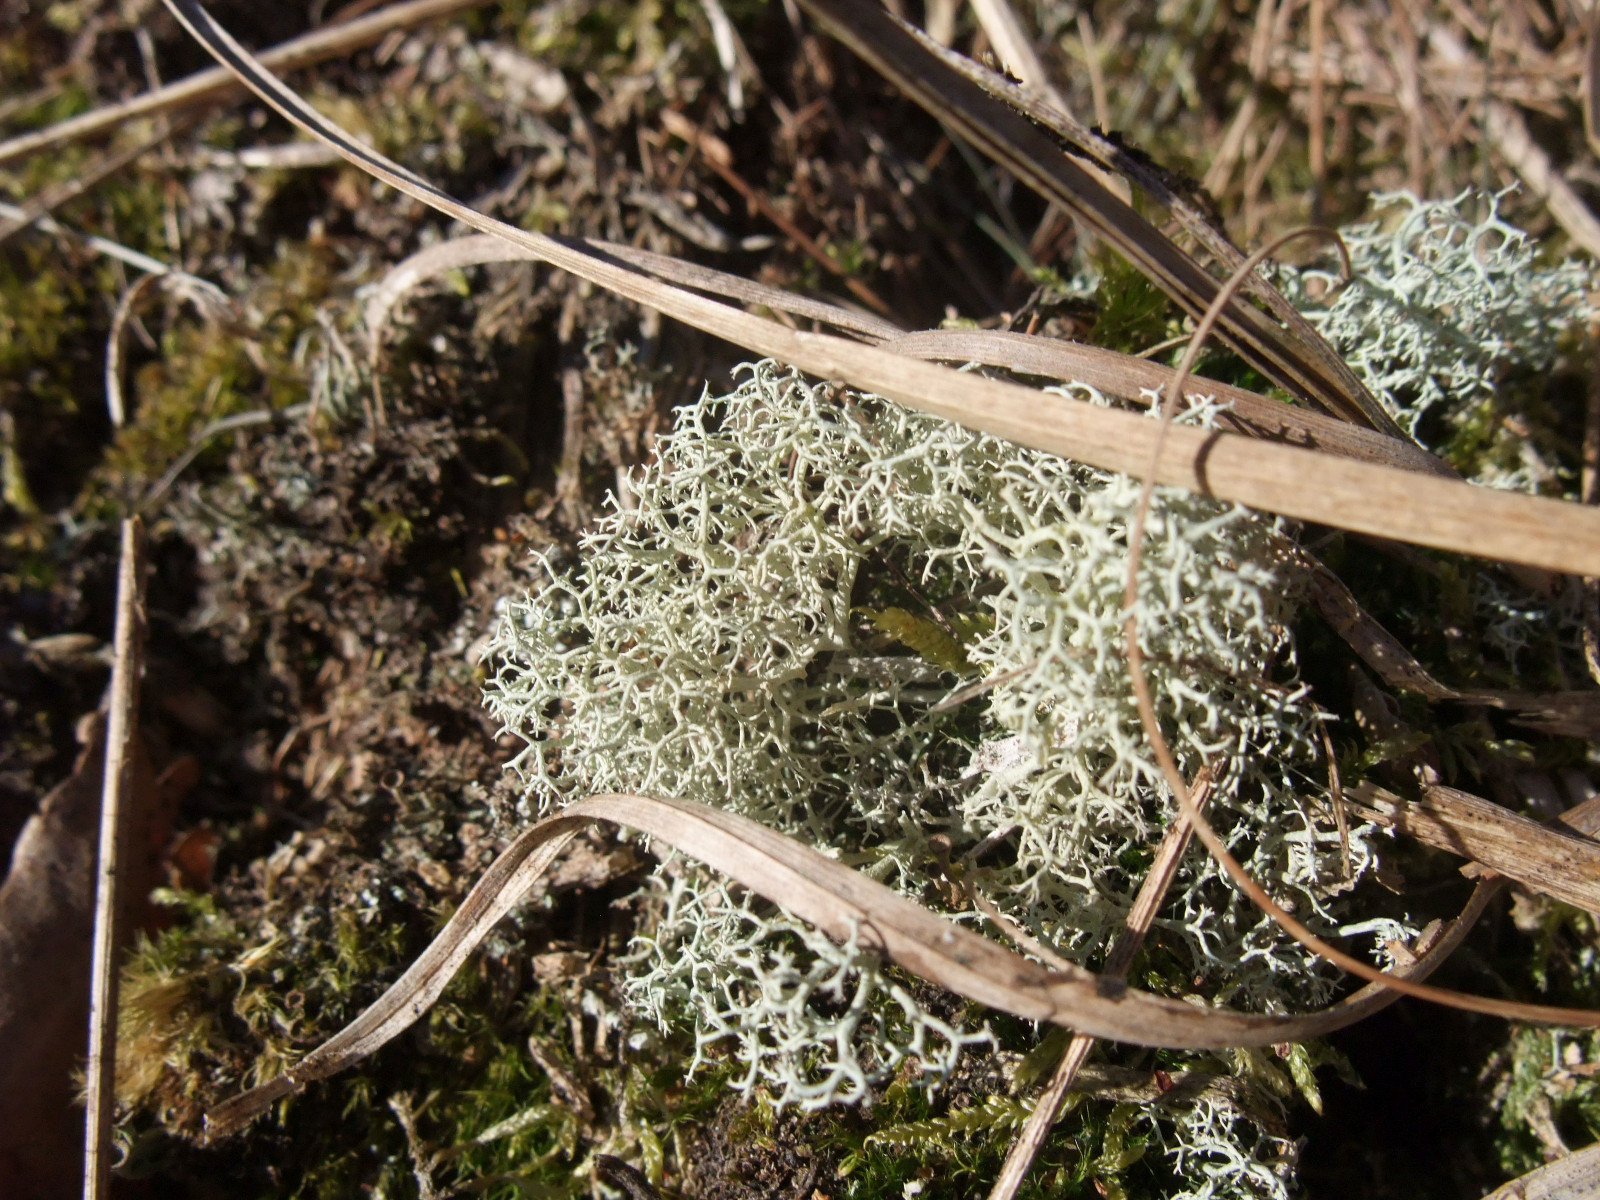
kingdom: Fungi
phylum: Ascomycota
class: Lecanoromycetes
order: Lecanorales
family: Cladoniaceae
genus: Cladonia
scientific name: Cladonia portentosa
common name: hede-rensdyrlav
